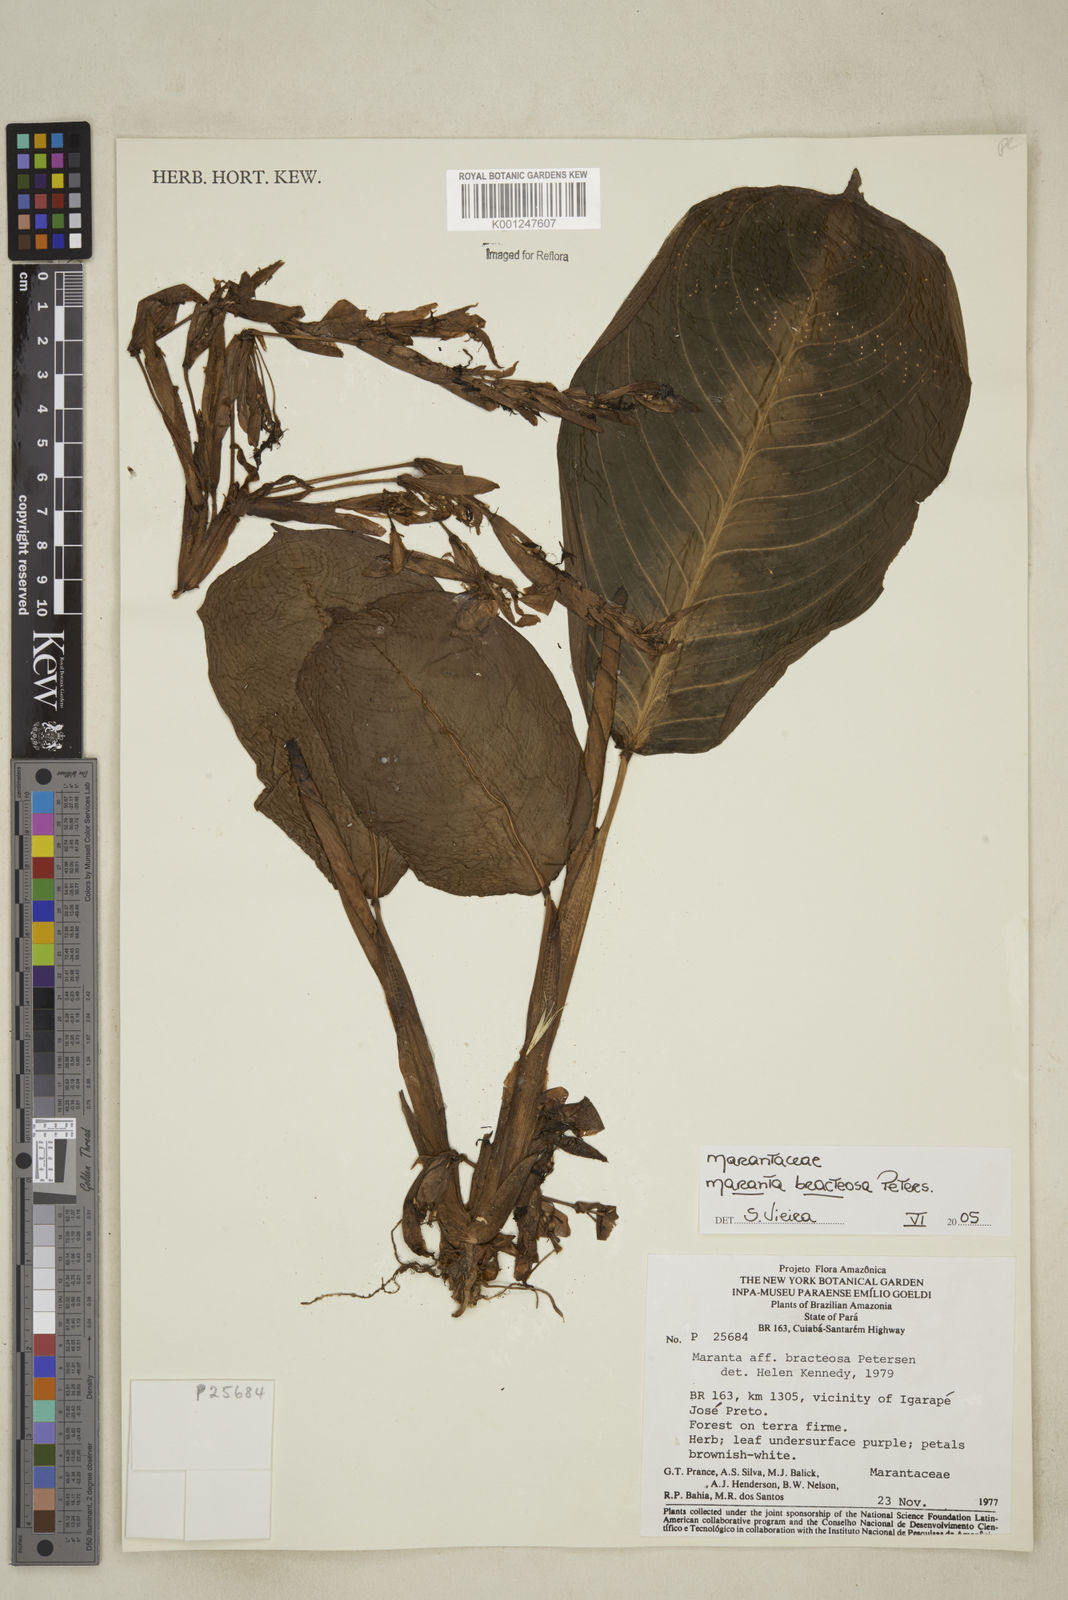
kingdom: Plantae
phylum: Tracheophyta
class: Liliopsida
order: Zingiberales
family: Marantaceae
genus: Maranta
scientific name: Maranta bracteosa
